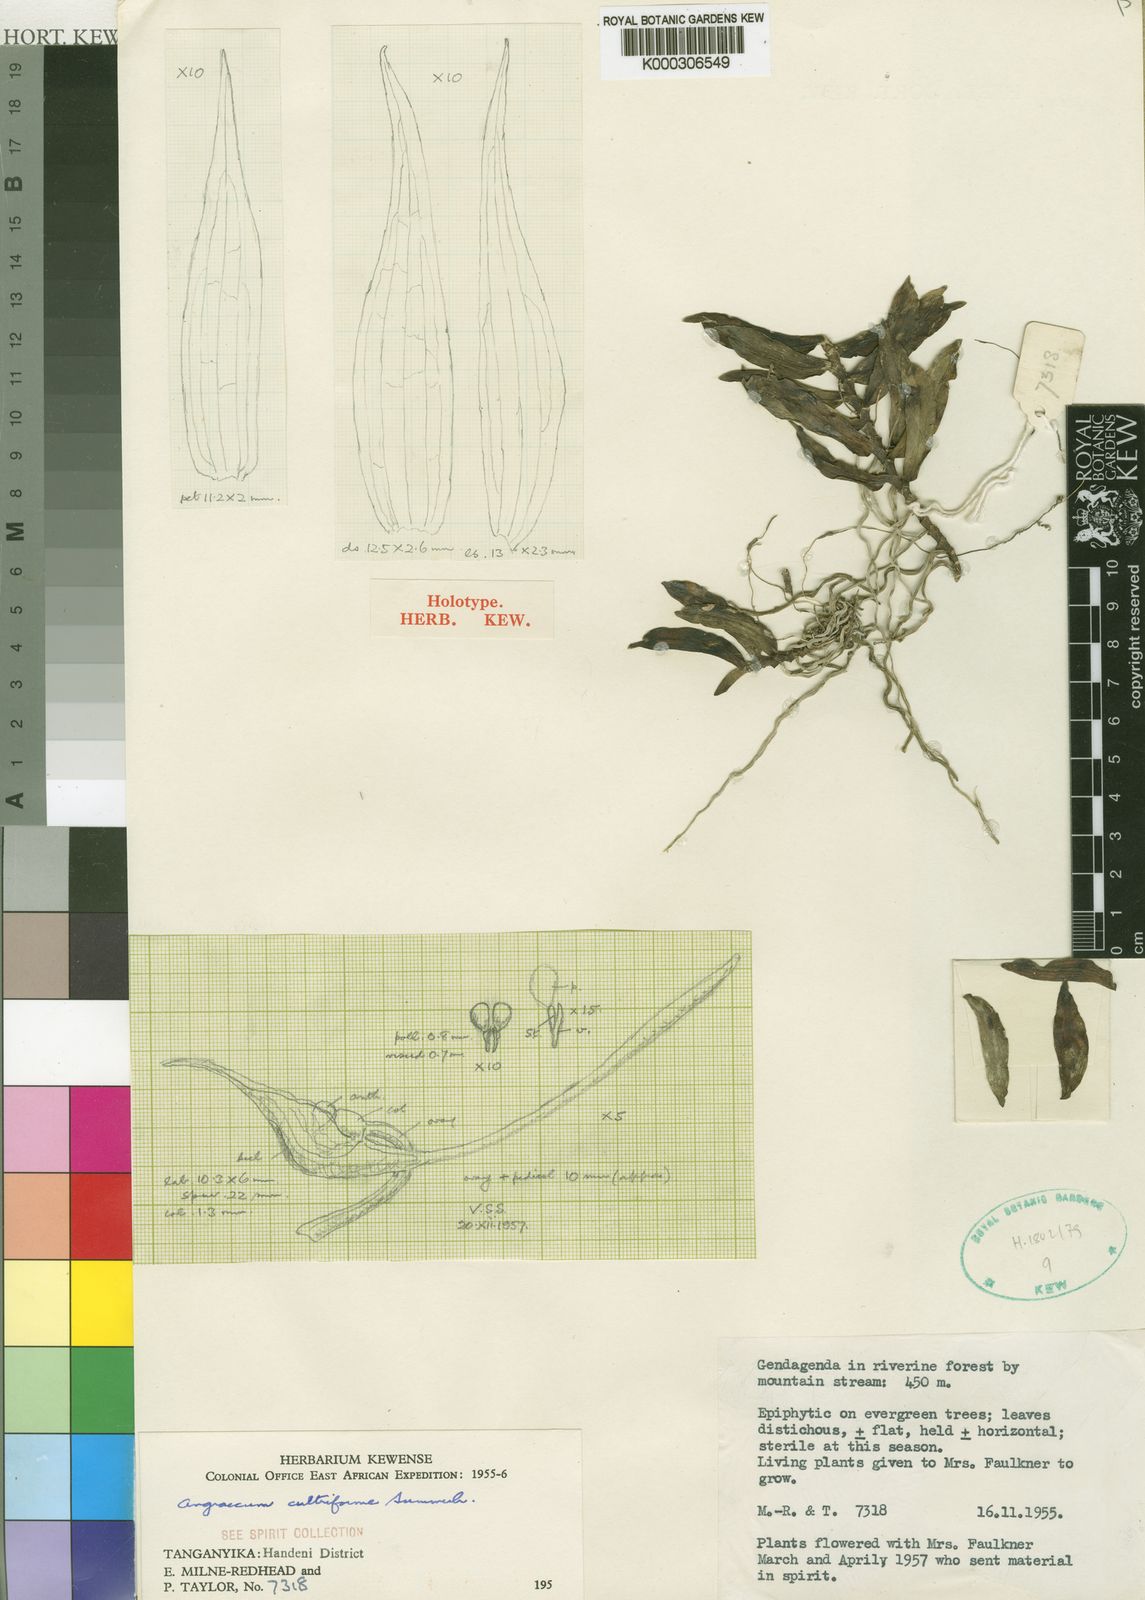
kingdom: Plantae
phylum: Tracheophyta
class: Liliopsida
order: Asparagales
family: Orchidaceae
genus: Angraecum
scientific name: Angraecum cultriforme
